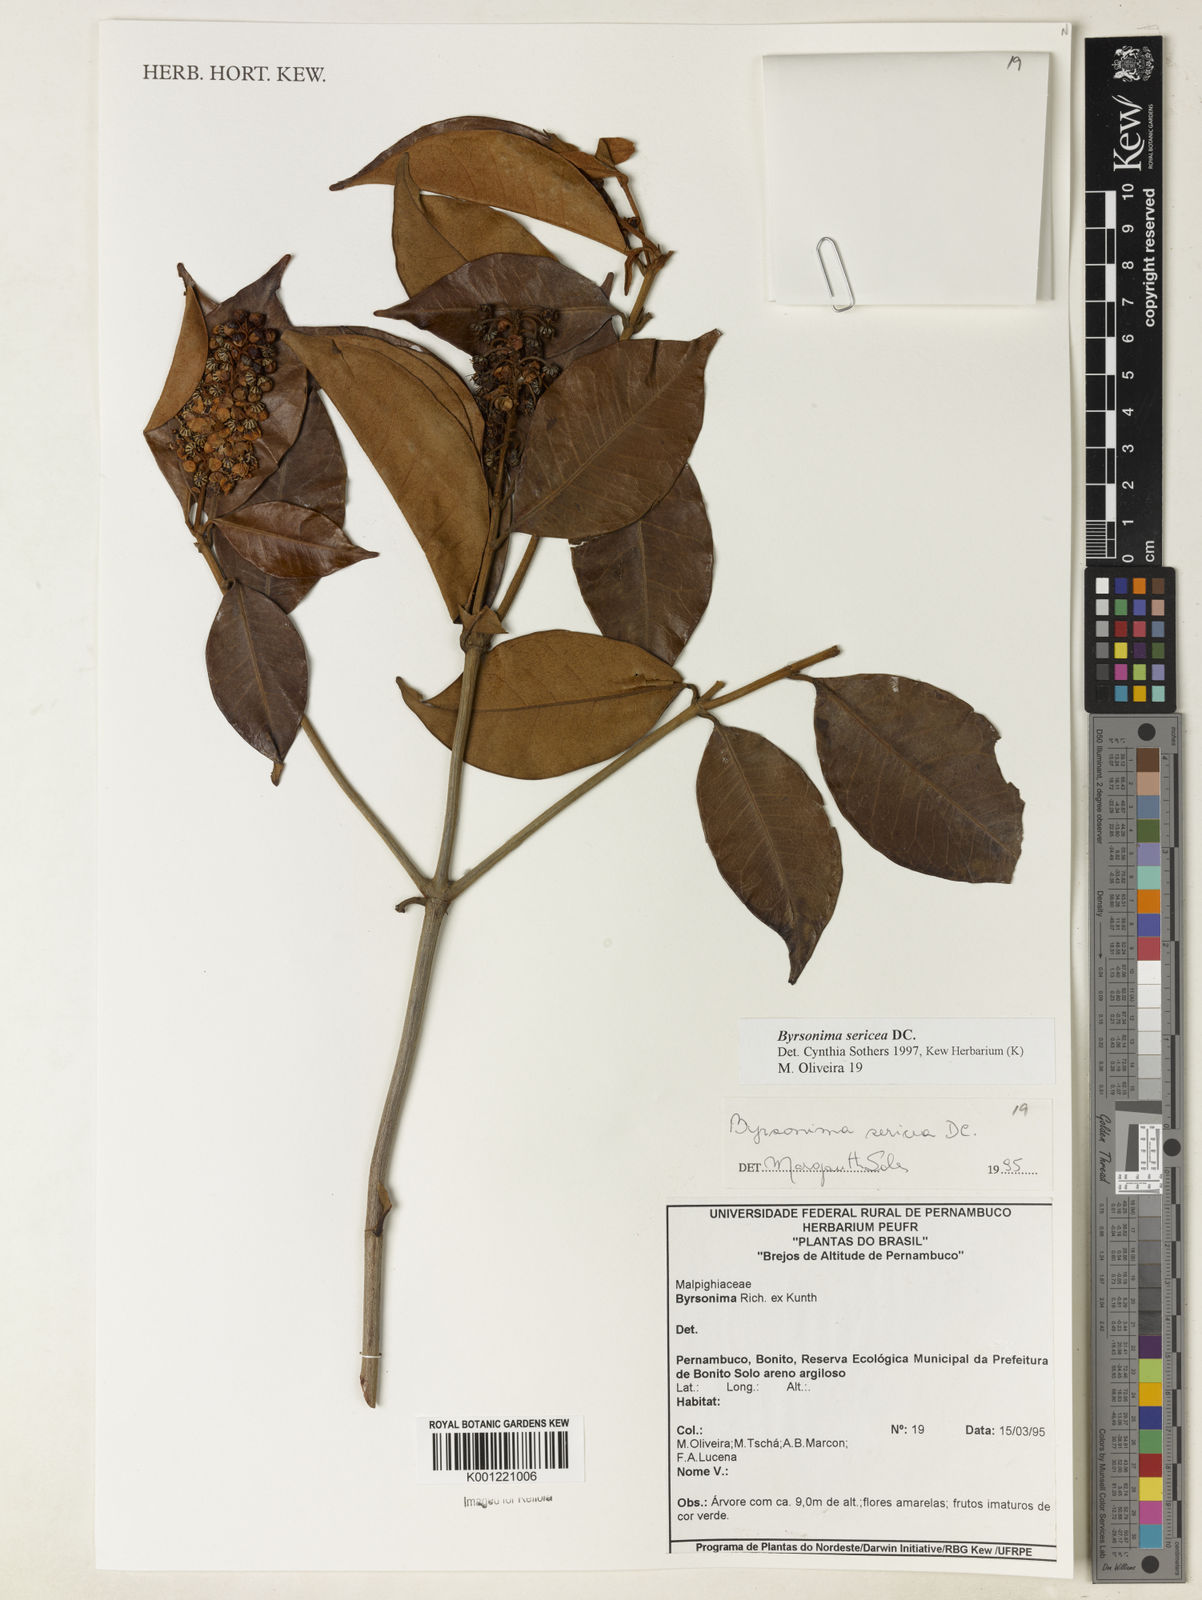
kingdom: Plantae
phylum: Tracheophyta
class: Magnoliopsida
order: Malpighiales
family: Malpighiaceae
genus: Byrsonima
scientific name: Byrsonima sericea
